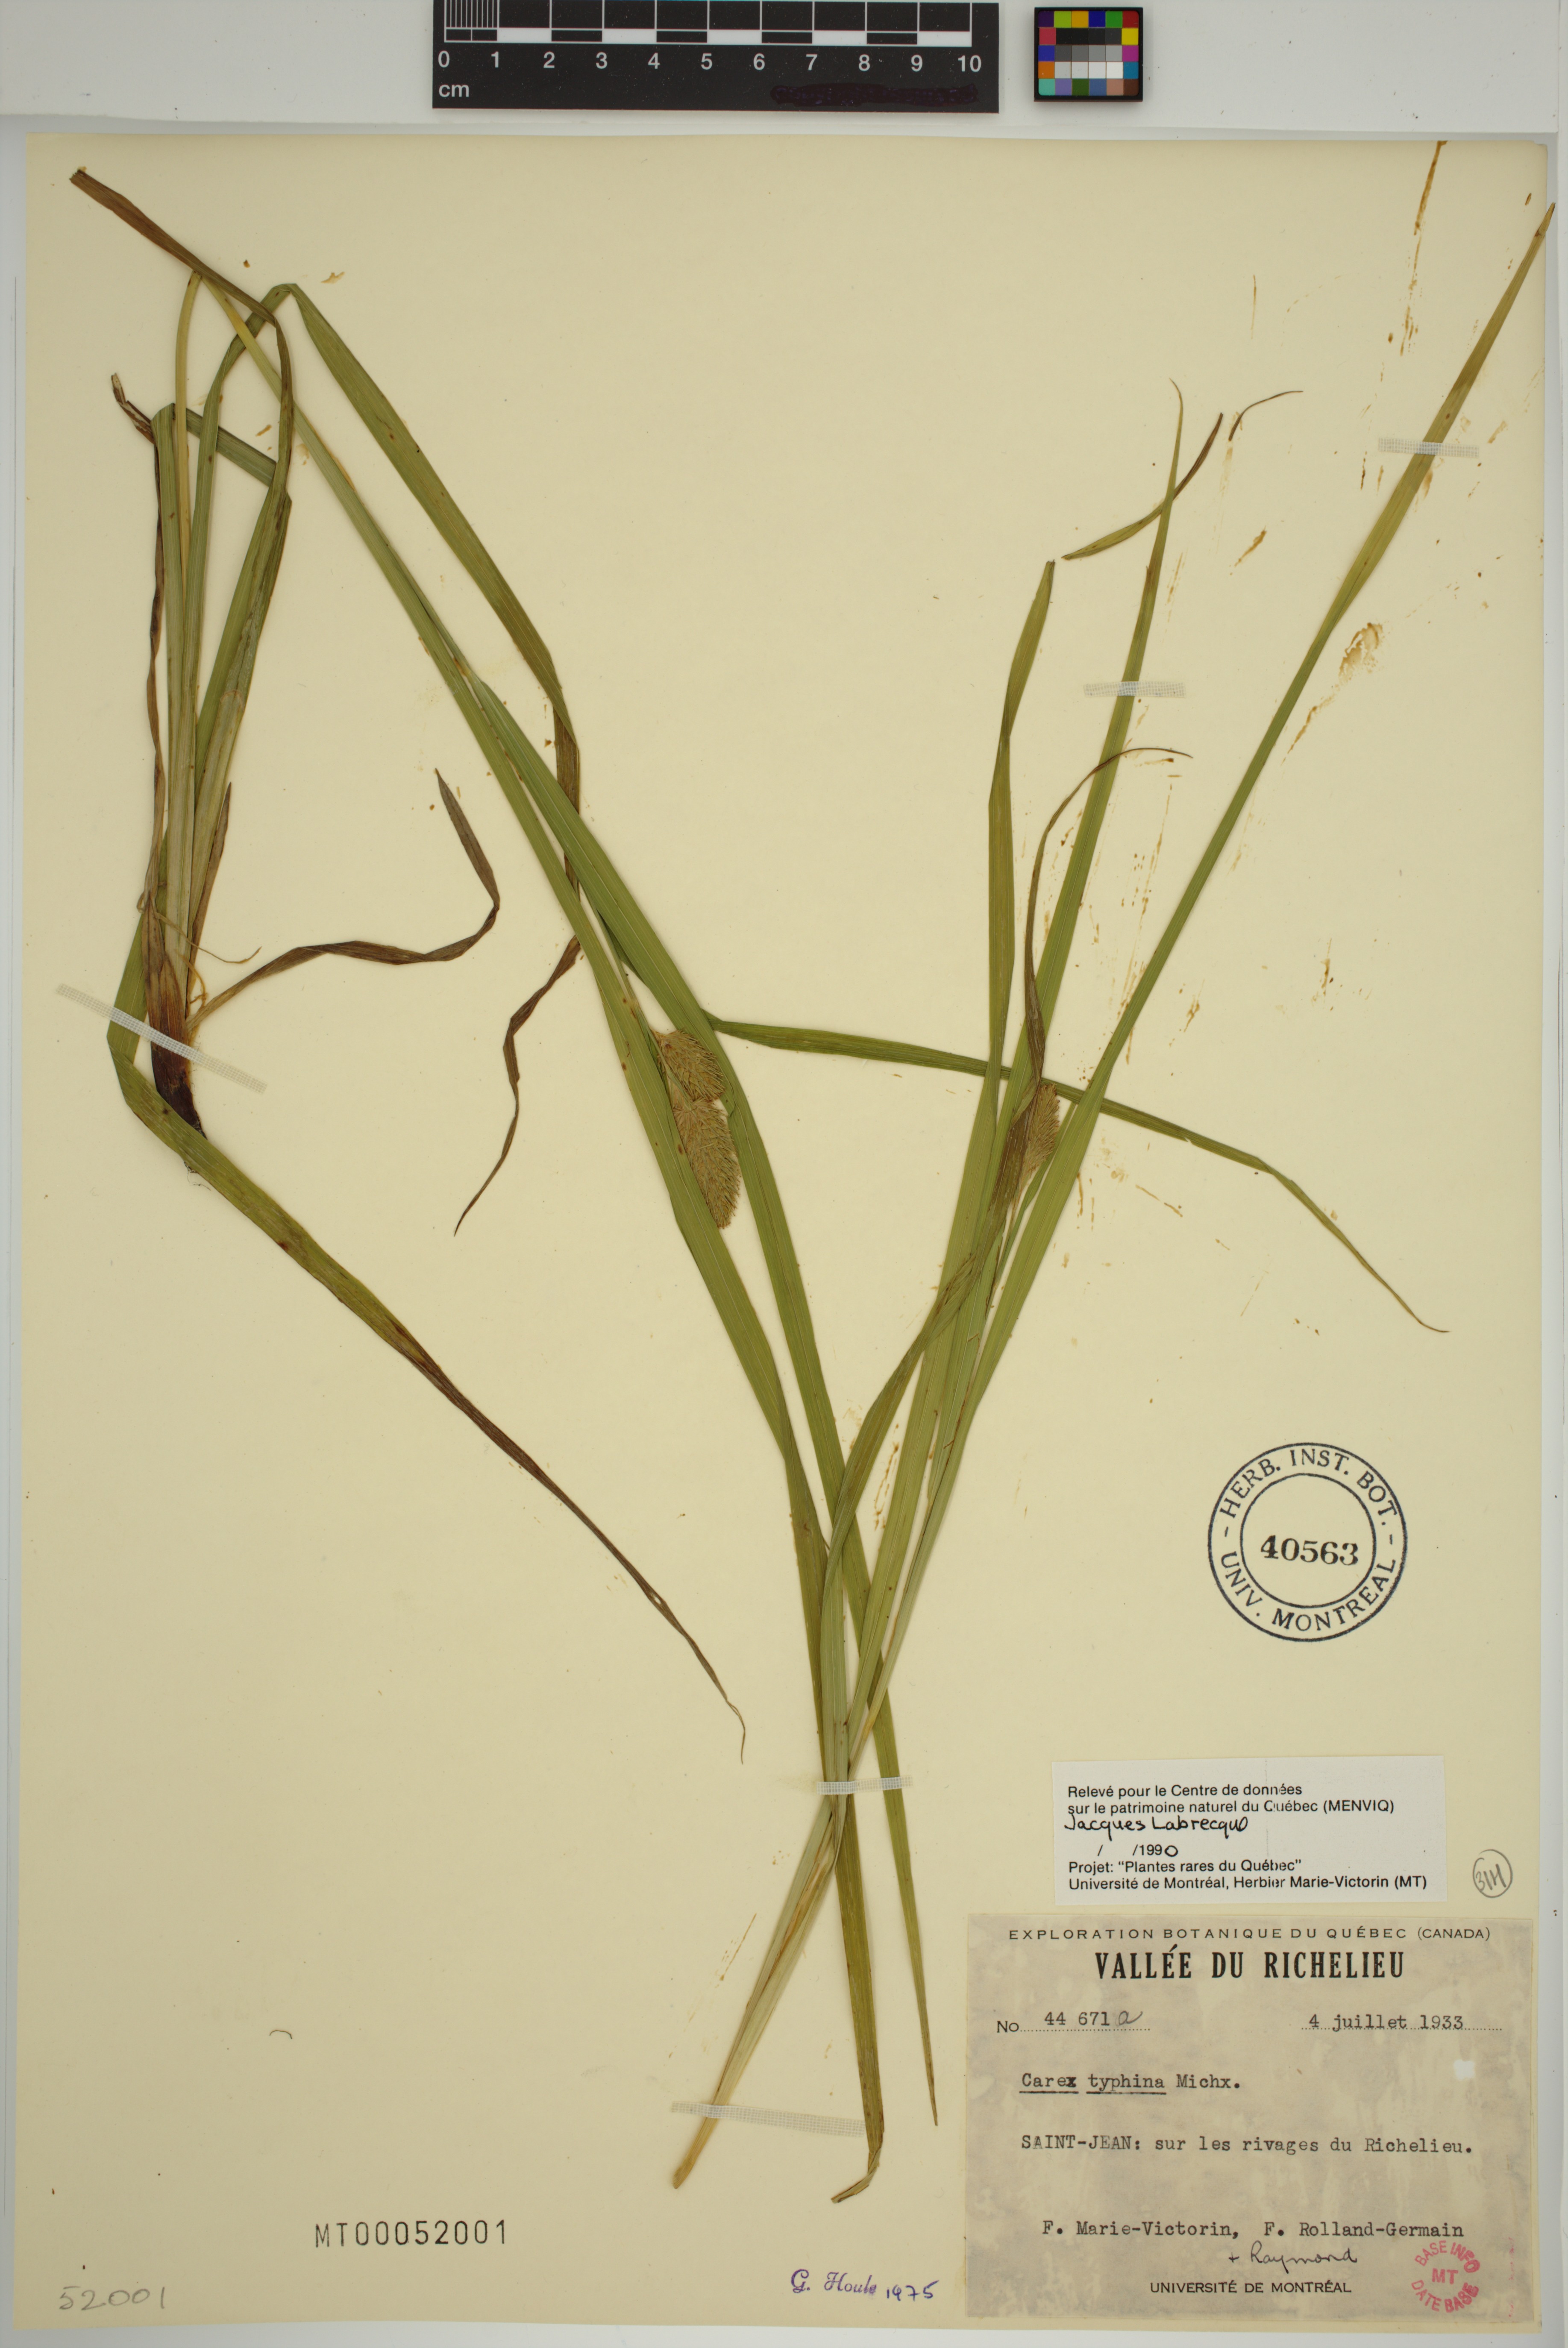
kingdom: Plantae
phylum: Tracheophyta
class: Liliopsida
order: Poales
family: Cyperaceae
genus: Carex
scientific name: Carex typhina
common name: Cattail sedge
